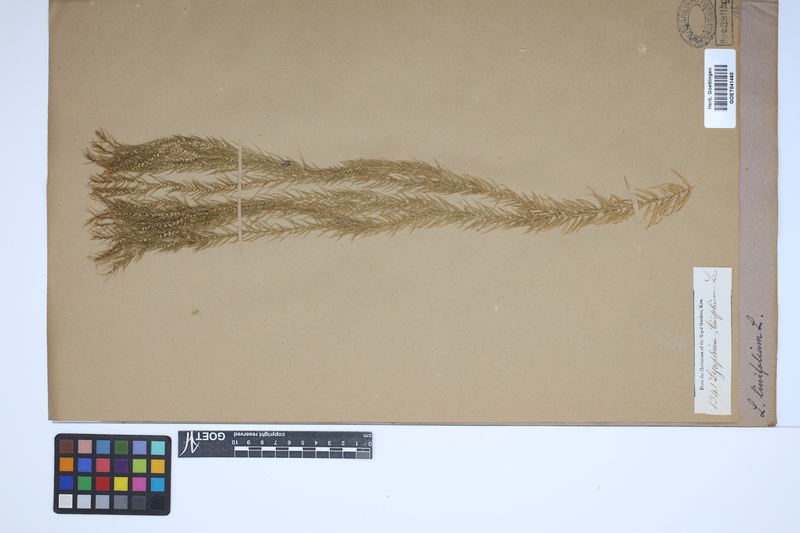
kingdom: Plantae
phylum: Tracheophyta
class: Lycopodiopsida
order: Lycopodiales
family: Lycopodiaceae
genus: Phlegmariurus
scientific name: Phlegmariurus linifolius
